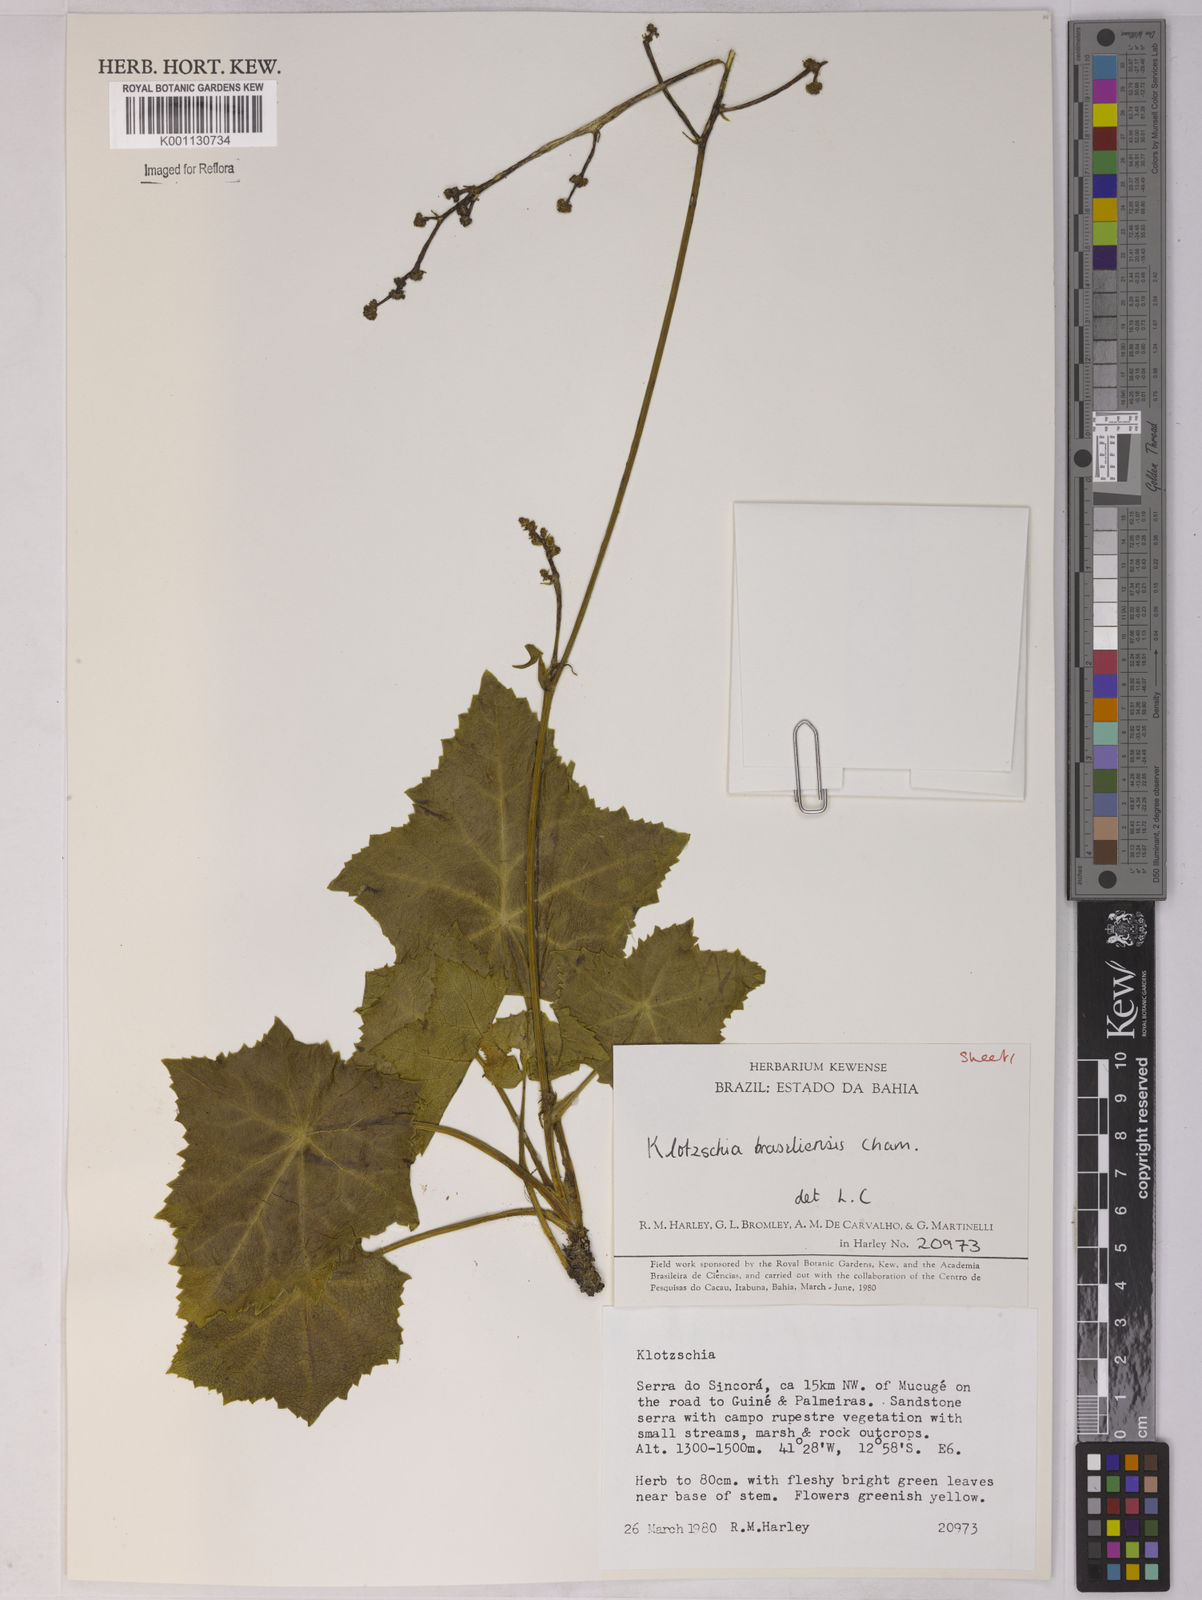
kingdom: Plantae
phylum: Tracheophyta
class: Magnoliopsida
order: Apiales
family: Apiaceae
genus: Klotzschia
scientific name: Klotzschia brasiliensis
